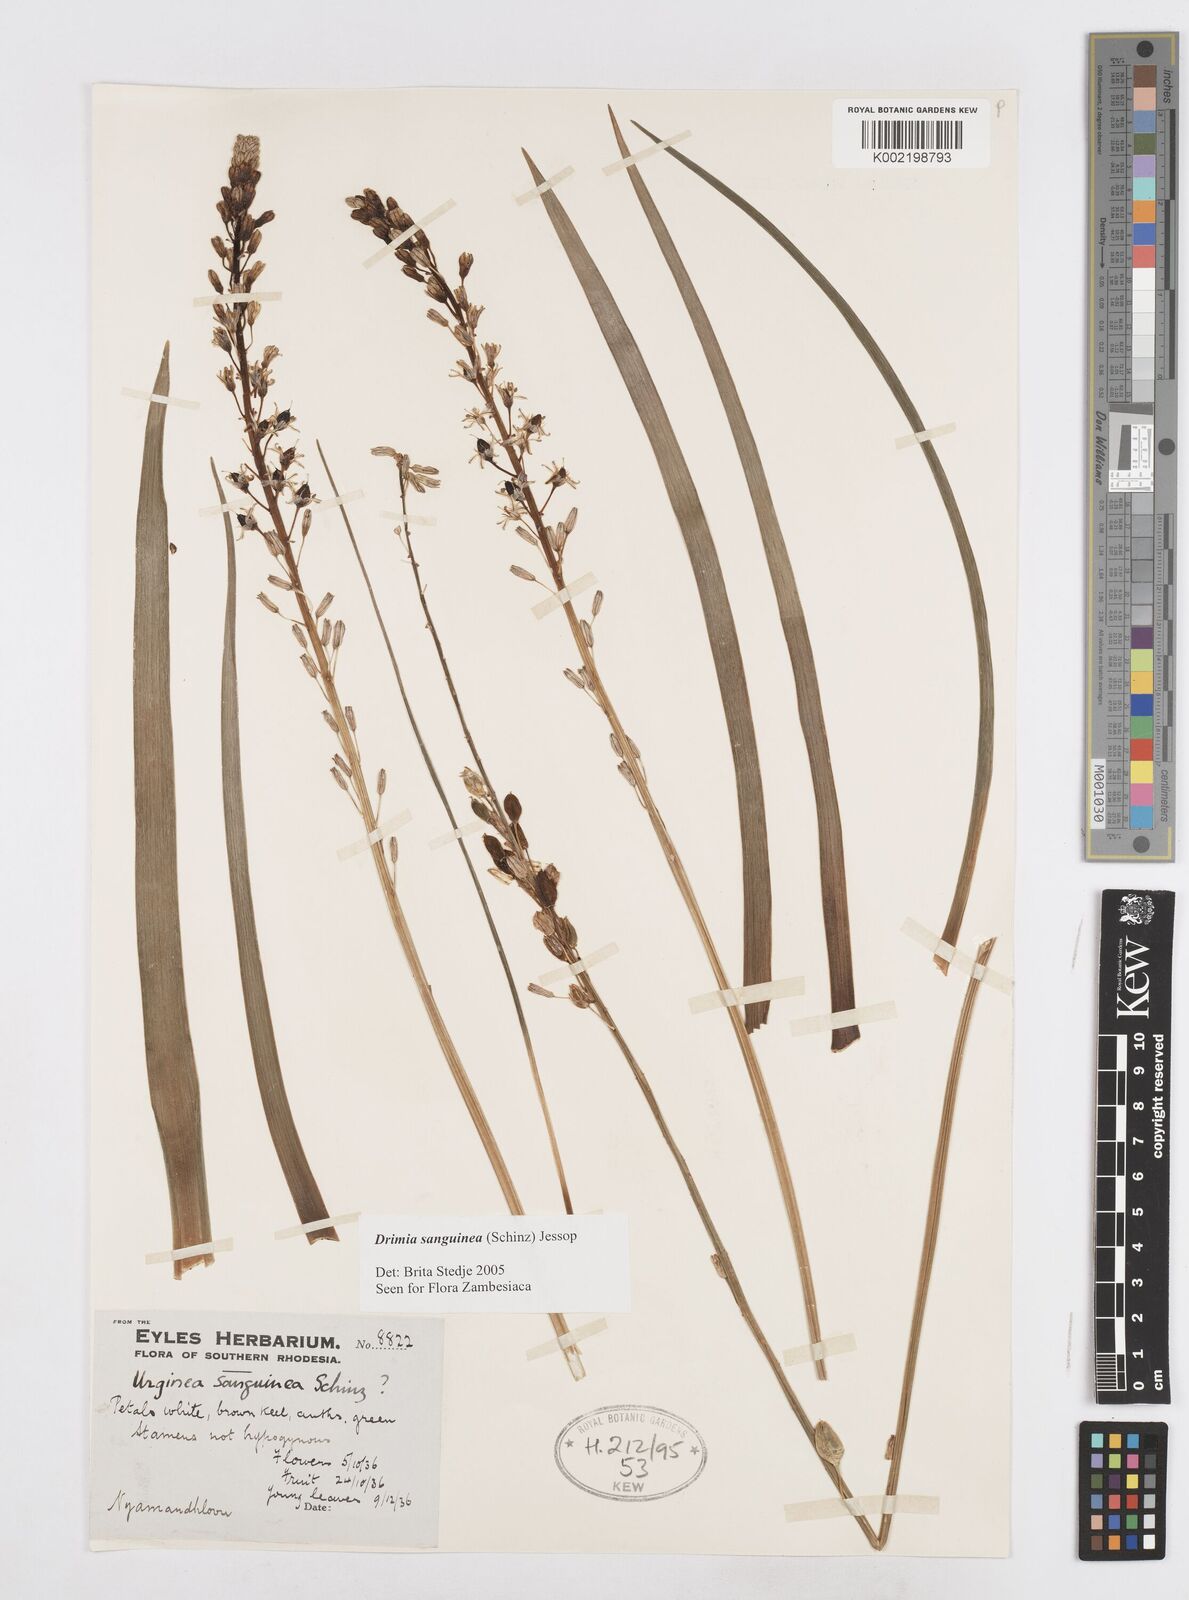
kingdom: Plantae
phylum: Tracheophyta
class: Liliopsida
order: Asparagales
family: Asparagaceae
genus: Drimia
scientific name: Drimia sanguinea
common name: Transvaal slangkop
